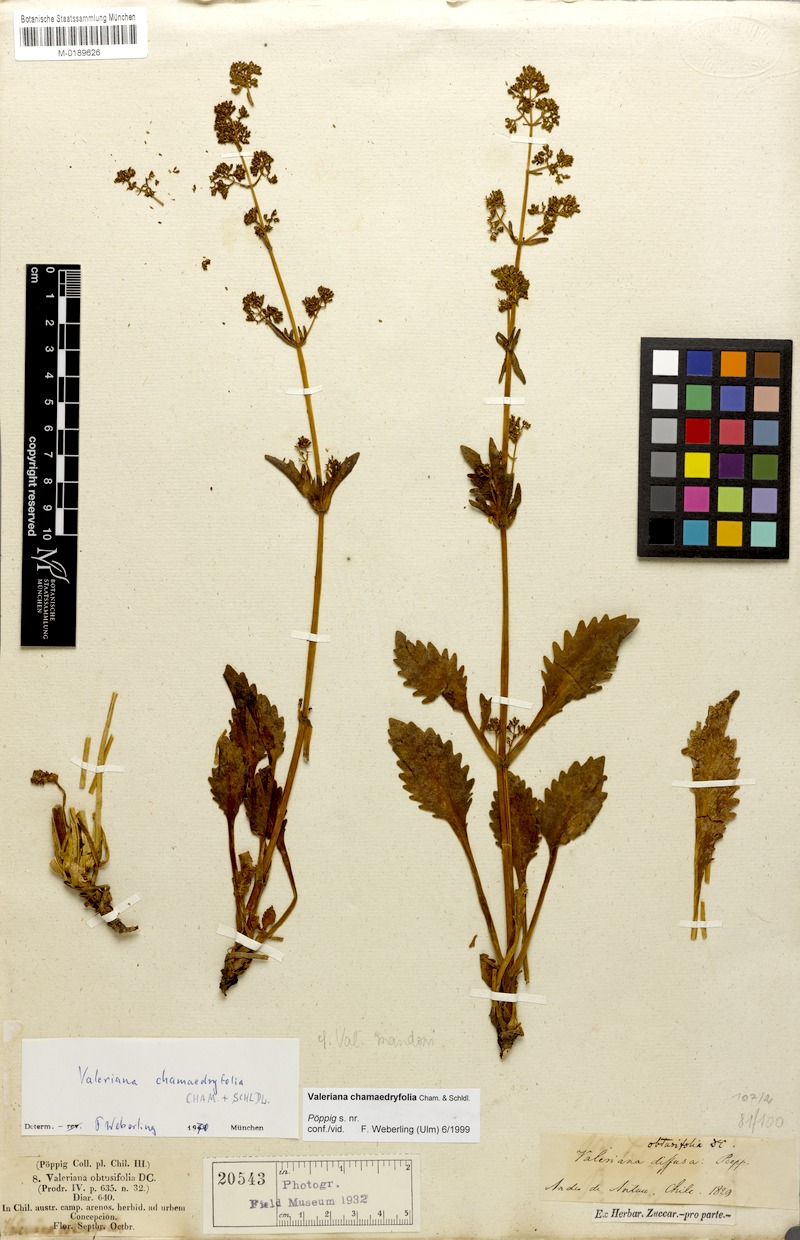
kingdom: Plantae
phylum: Tracheophyta
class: Magnoliopsida
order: Dipsacales
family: Caprifoliaceae
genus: Valeriana
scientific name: Valeriana chamaedryfolia
